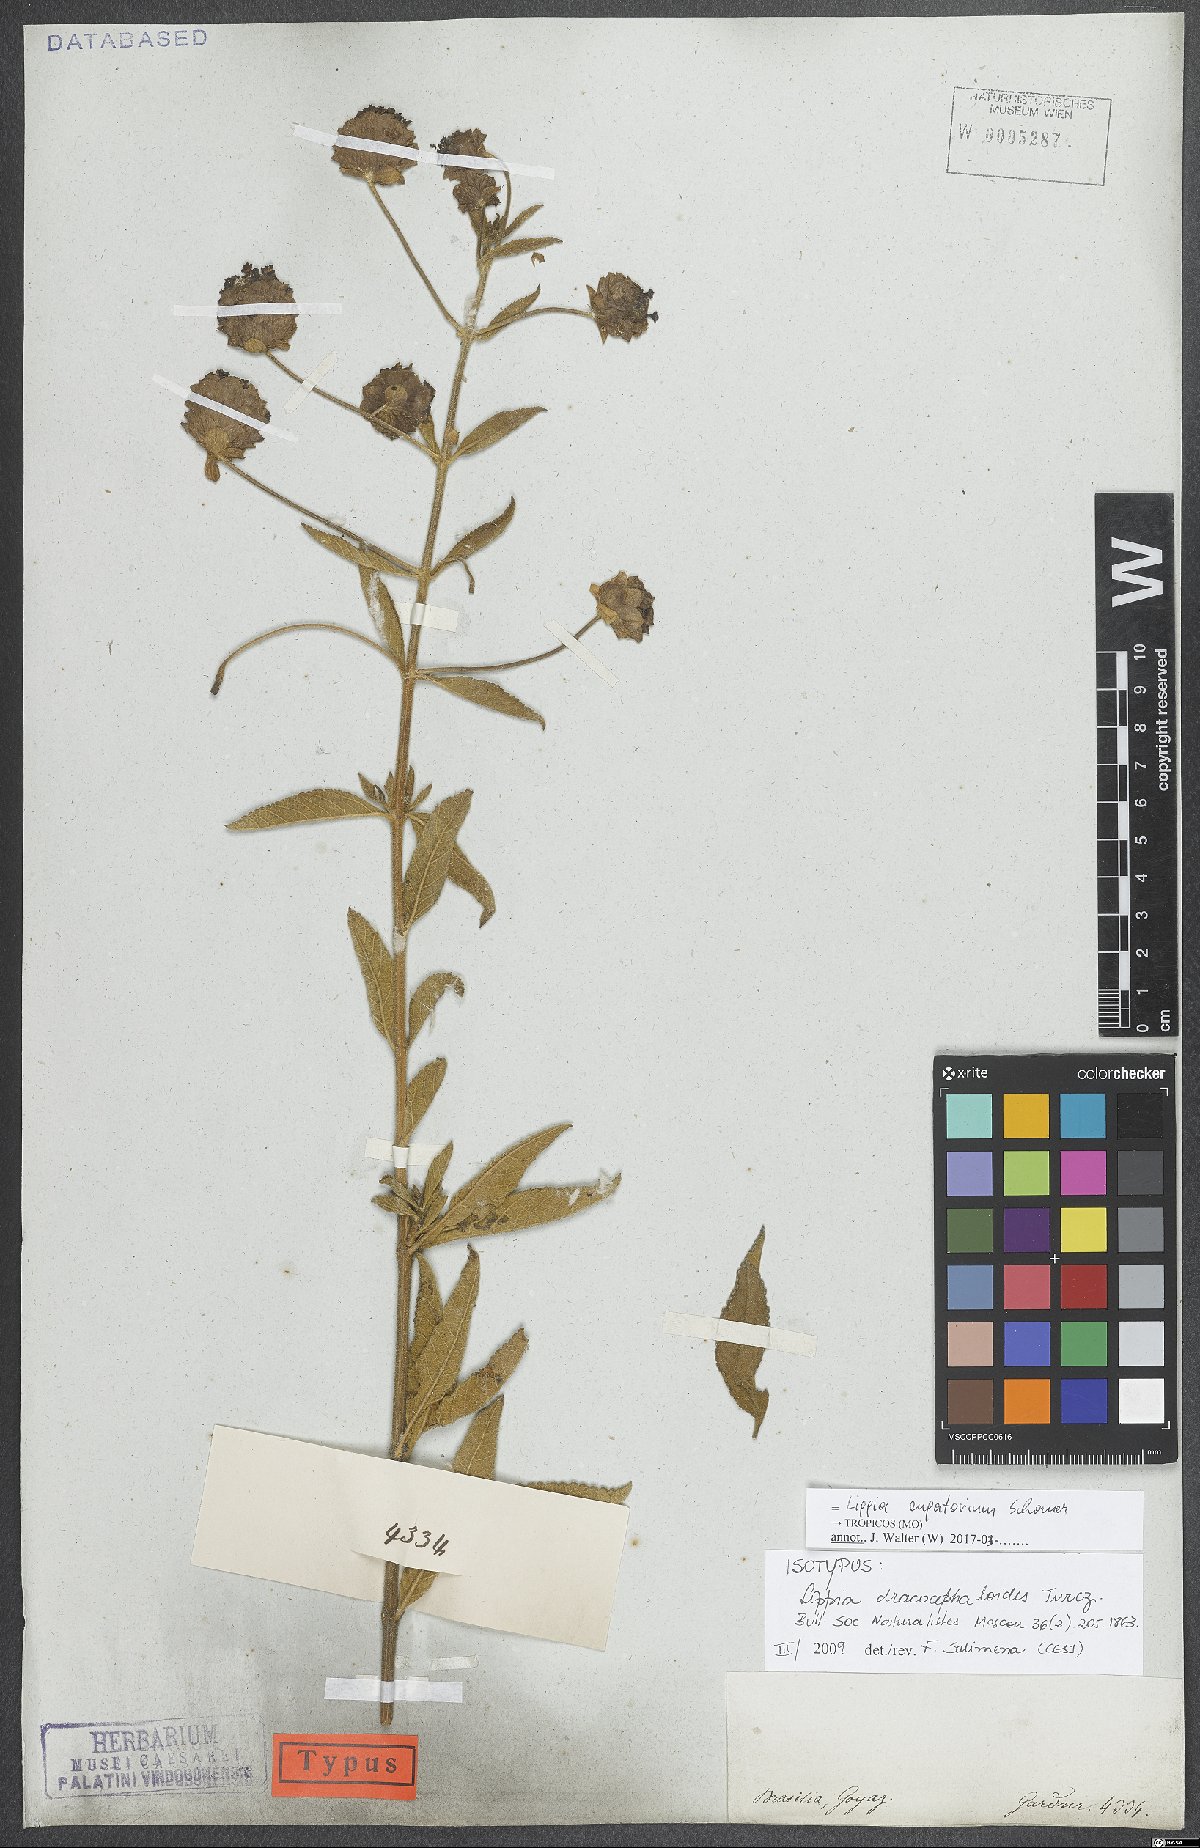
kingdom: Plantae
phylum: Tracheophyta
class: Magnoliopsida
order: Lamiales
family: Verbenaceae
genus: Lippia
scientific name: Lippia eupatorium
